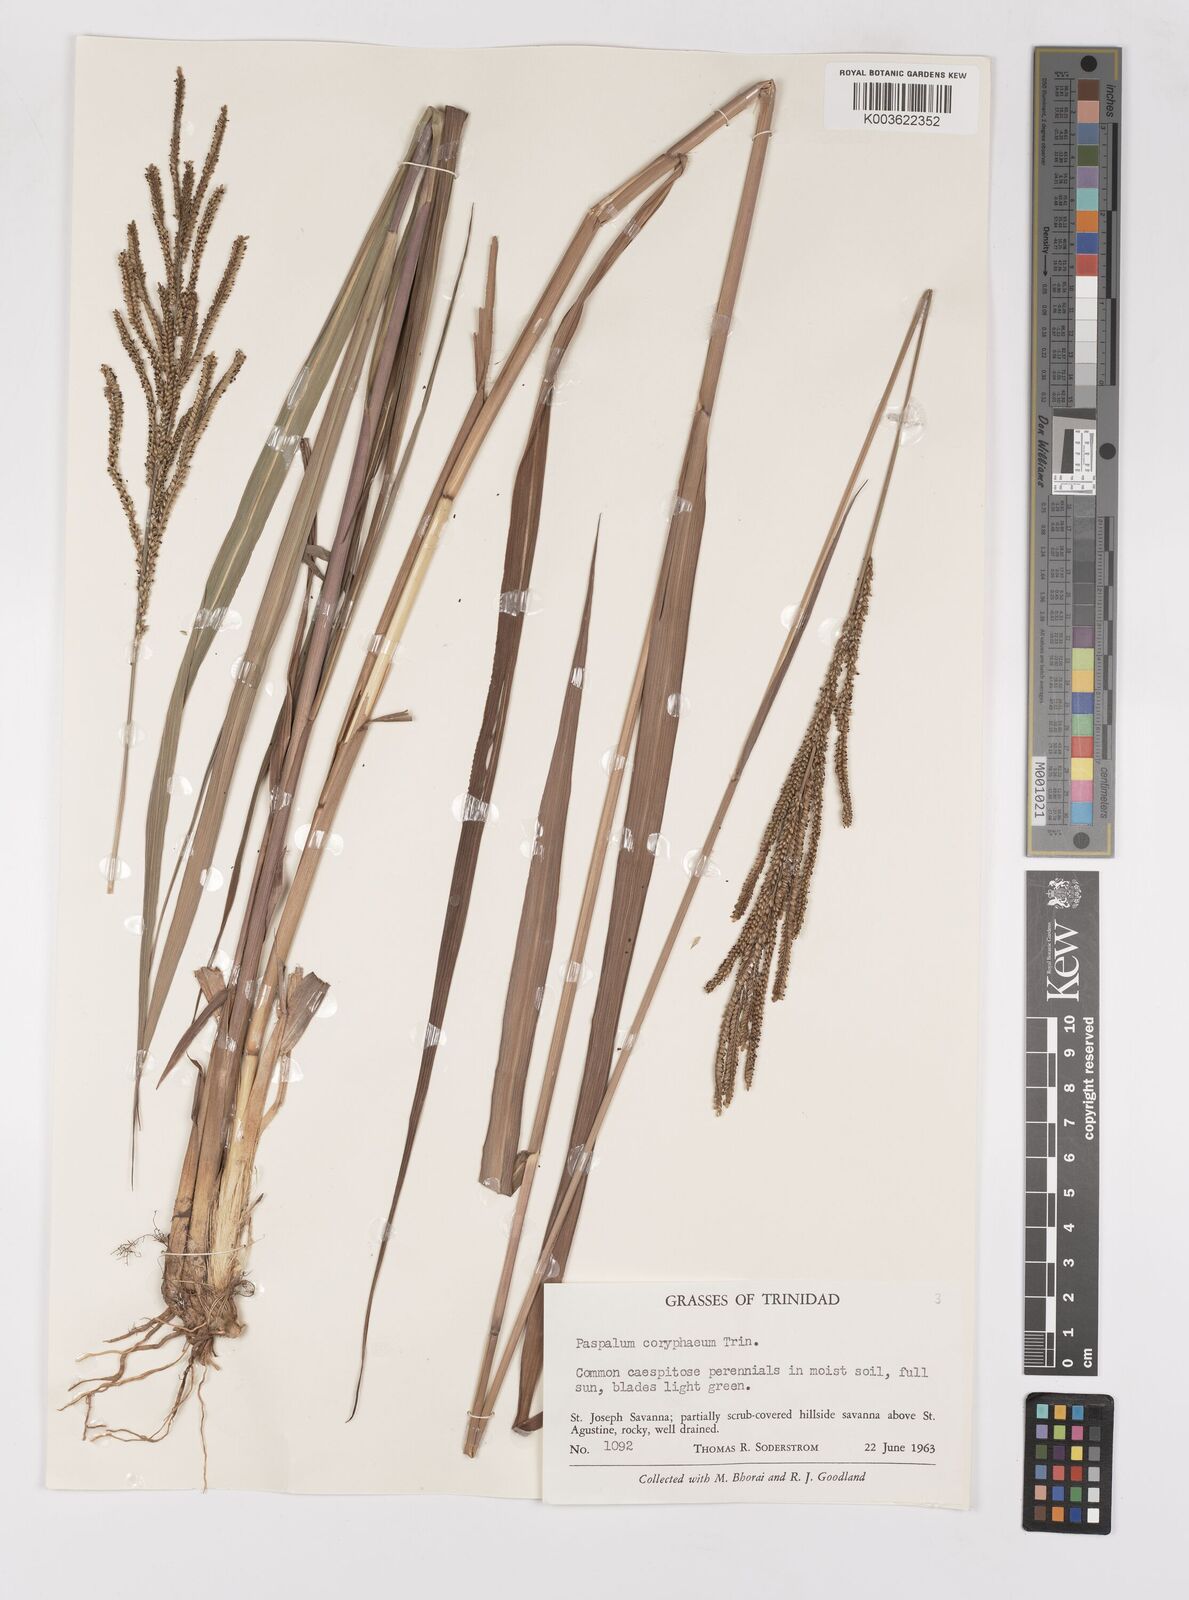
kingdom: Plantae
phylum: Tracheophyta
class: Liliopsida
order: Poales
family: Poaceae
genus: Paspalum
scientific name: Paspalum coryphaeum
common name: Emperor crowngrass
